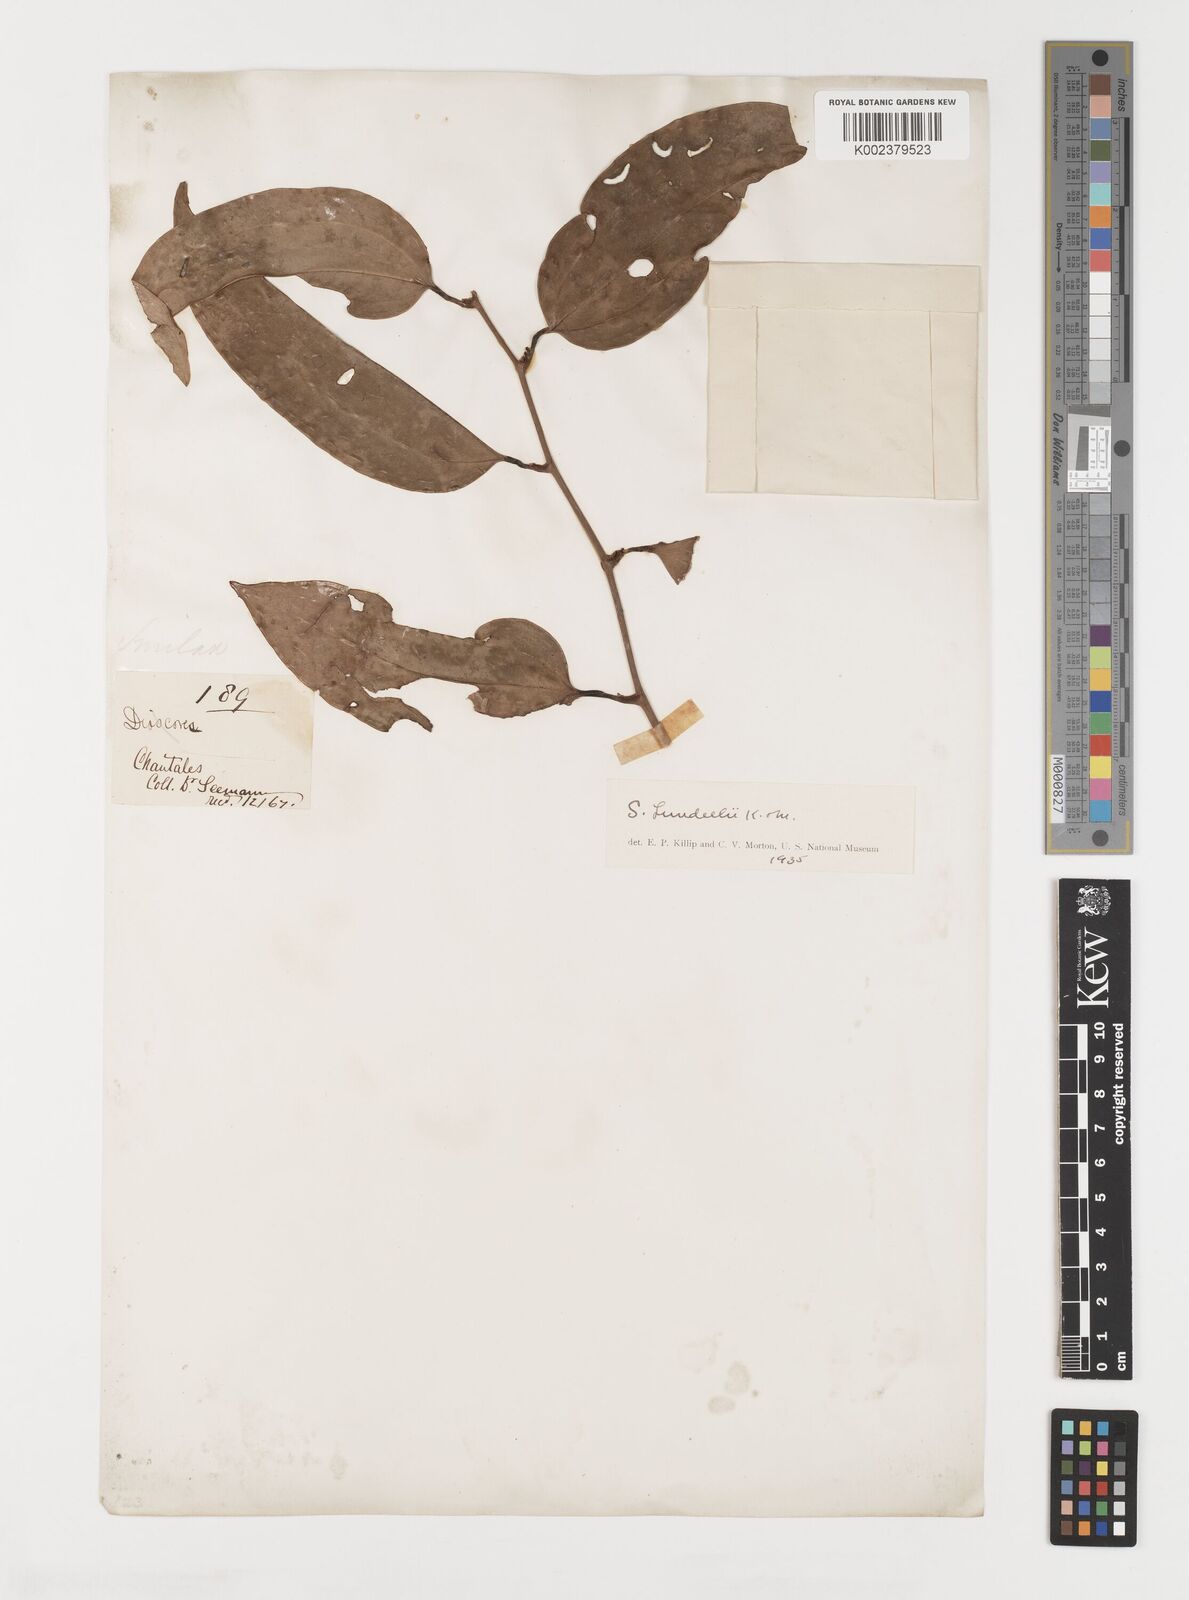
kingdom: Plantae
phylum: Tracheophyta
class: Liliopsida
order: Liliales
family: Smilacaceae
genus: Smilax
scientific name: Smilax spinosa
